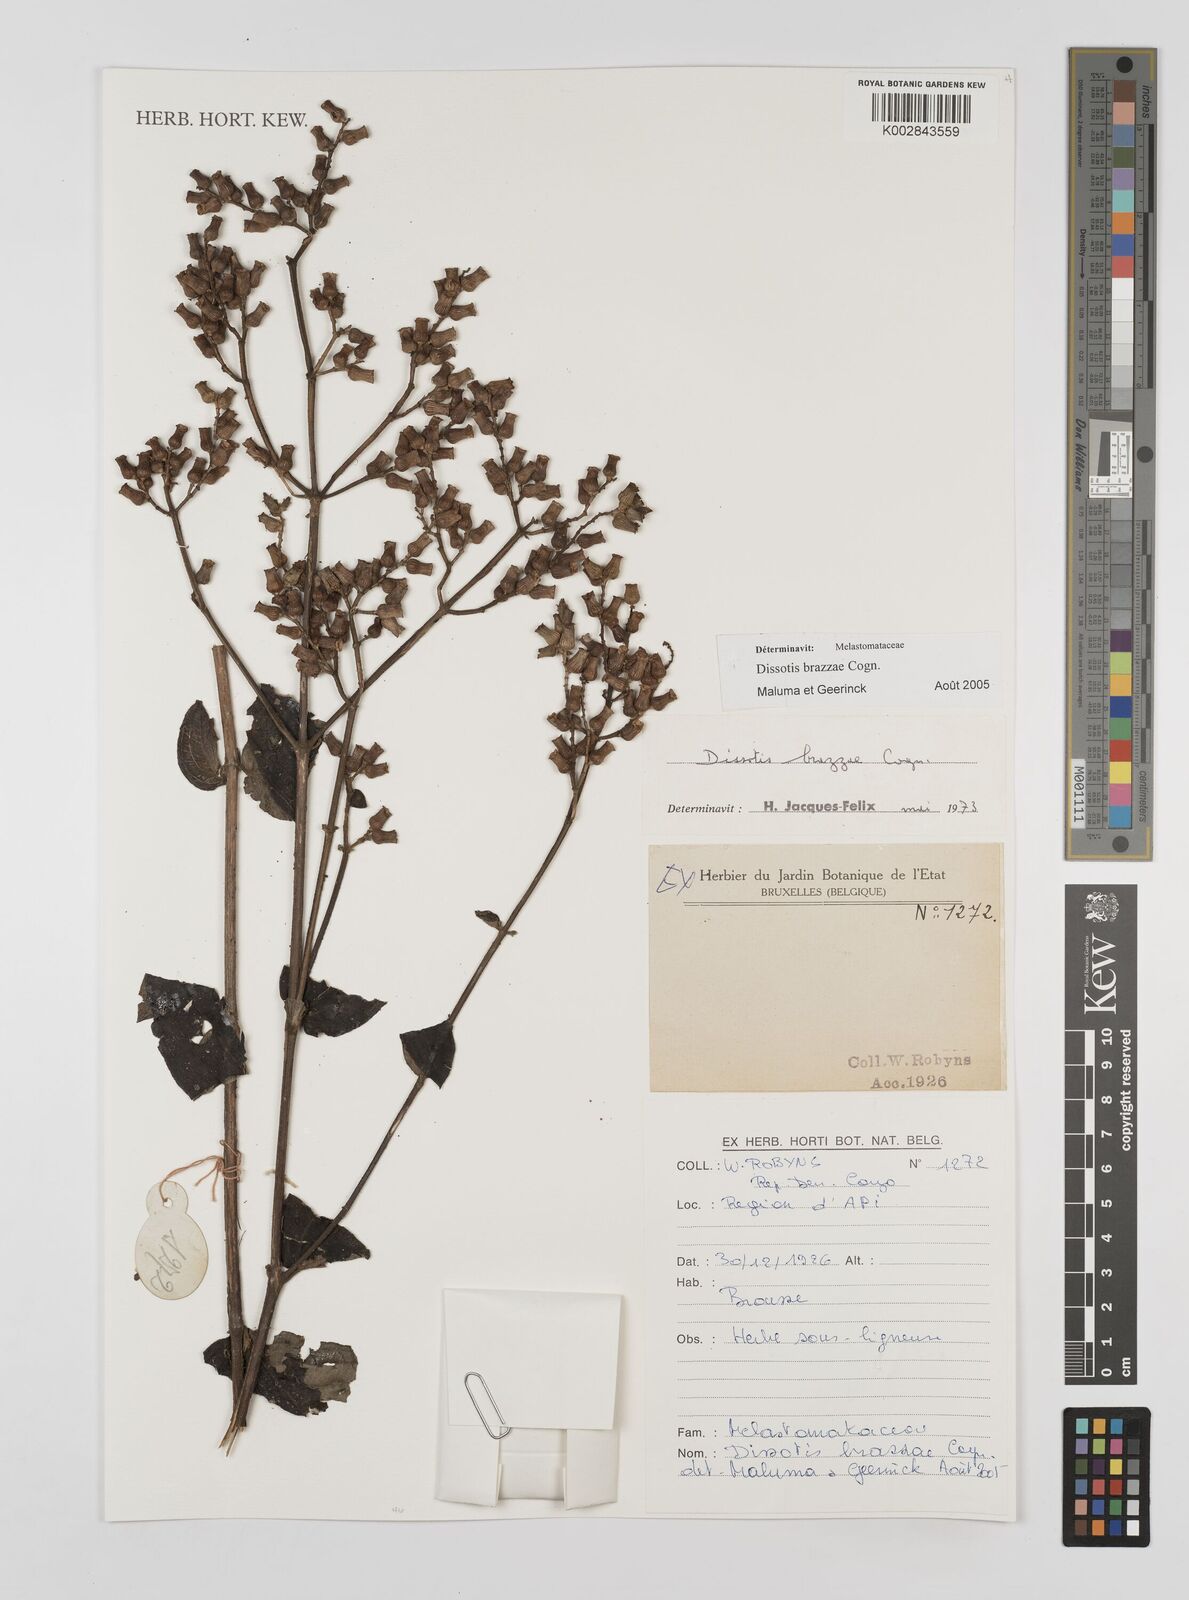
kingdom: Plantae
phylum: Tracheophyta
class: Magnoliopsida
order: Myrtales
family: Melastomataceae
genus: Dupineta
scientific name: Dupineta brazzae
